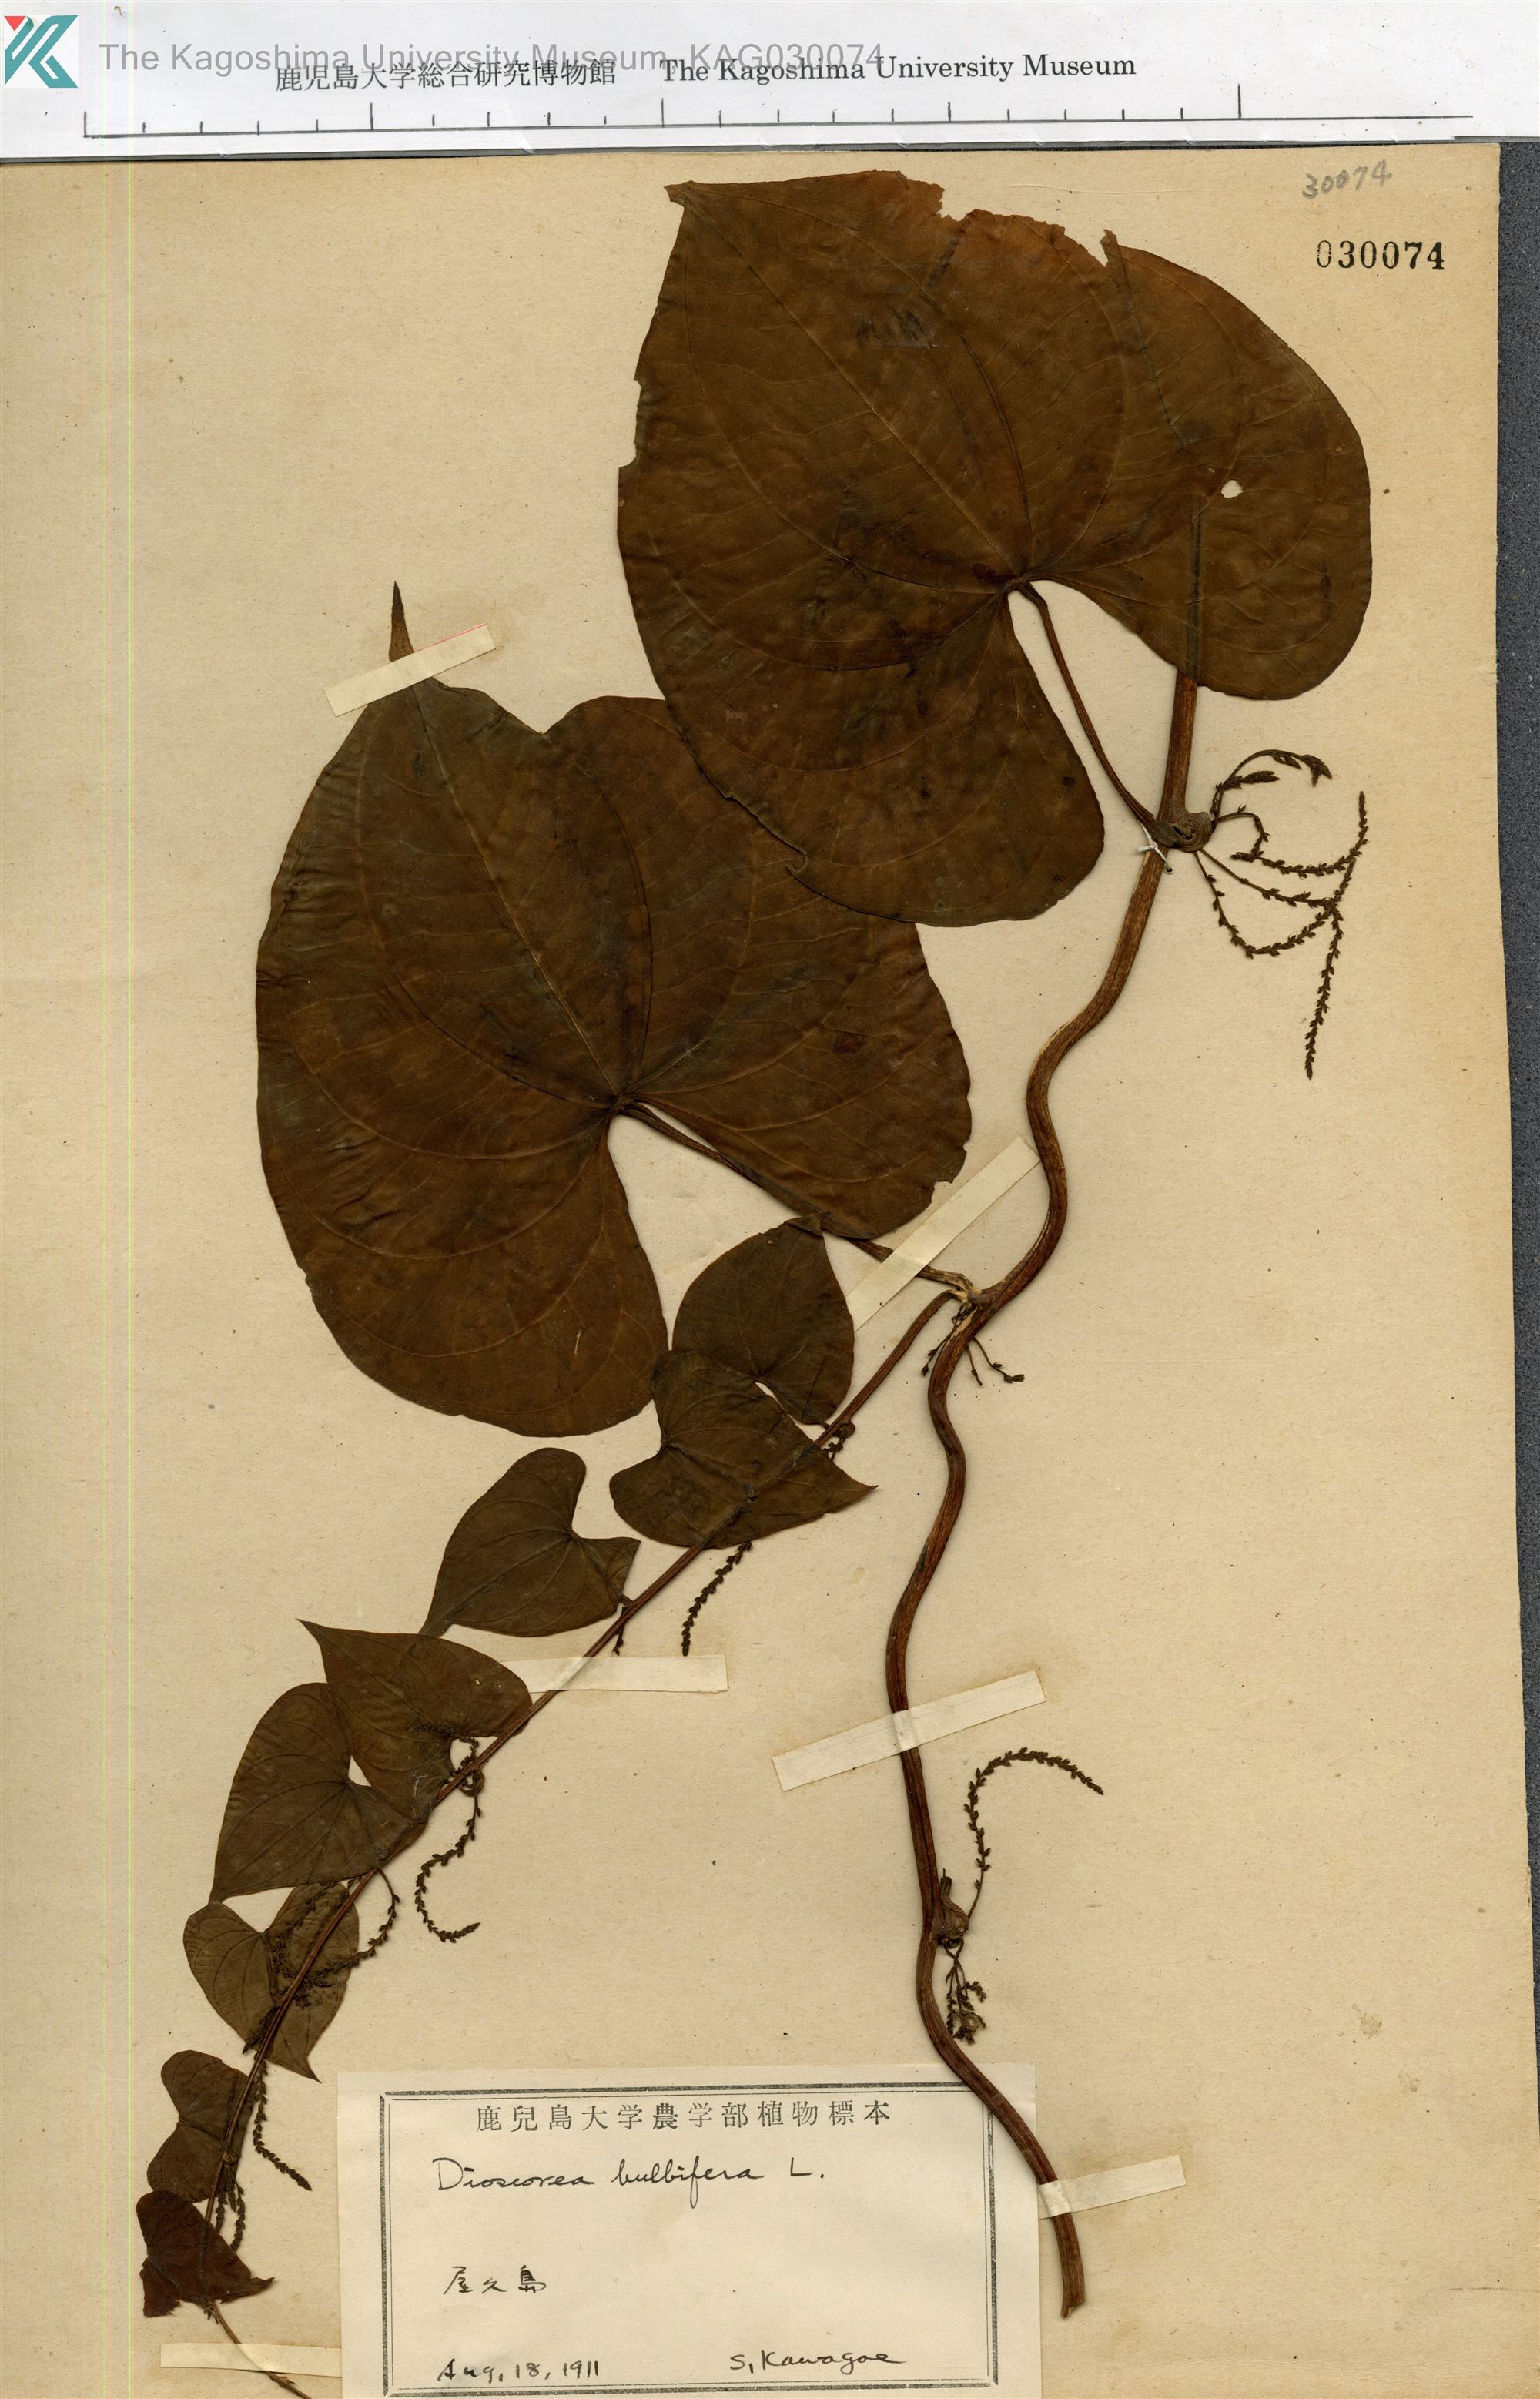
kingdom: Plantae
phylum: Tracheophyta
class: Liliopsida
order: Dioscoreales
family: Dioscoreaceae
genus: Dioscorea
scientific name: Dioscorea bulbifera
